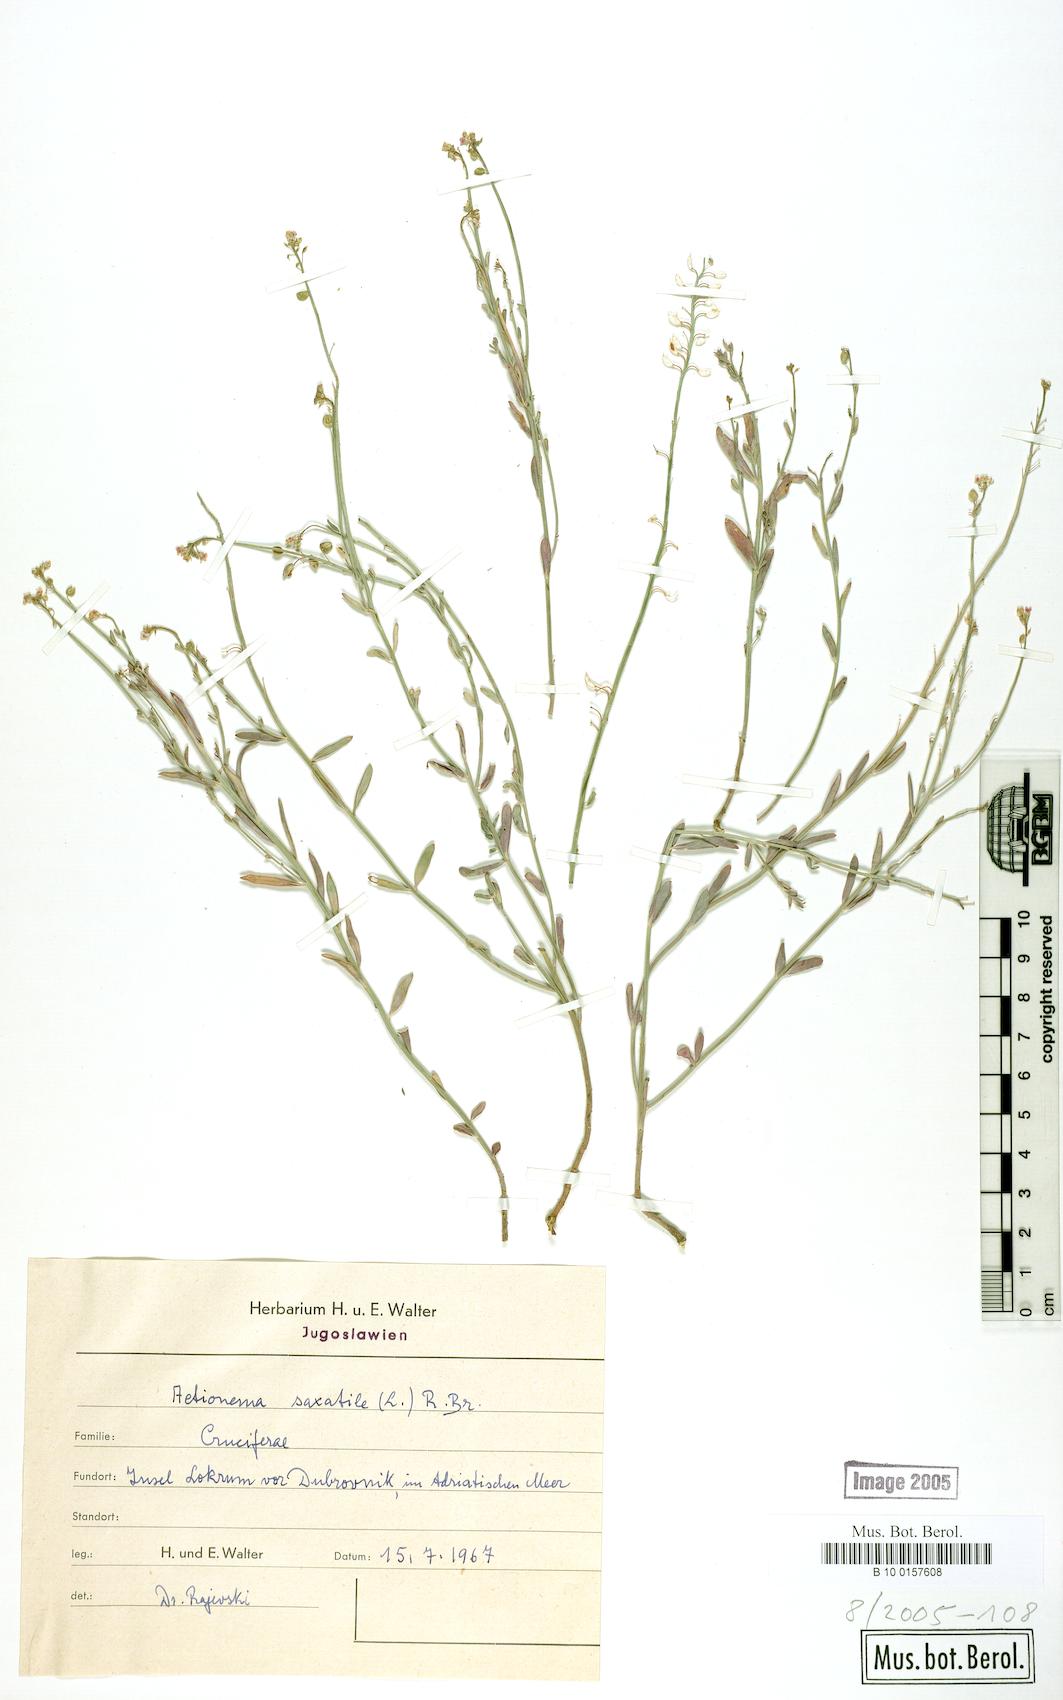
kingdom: Plantae
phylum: Tracheophyta
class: Magnoliopsida
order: Brassicales
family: Brassicaceae
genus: Aethionema
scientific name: Aethionema saxatile
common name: Burnt candytuft
